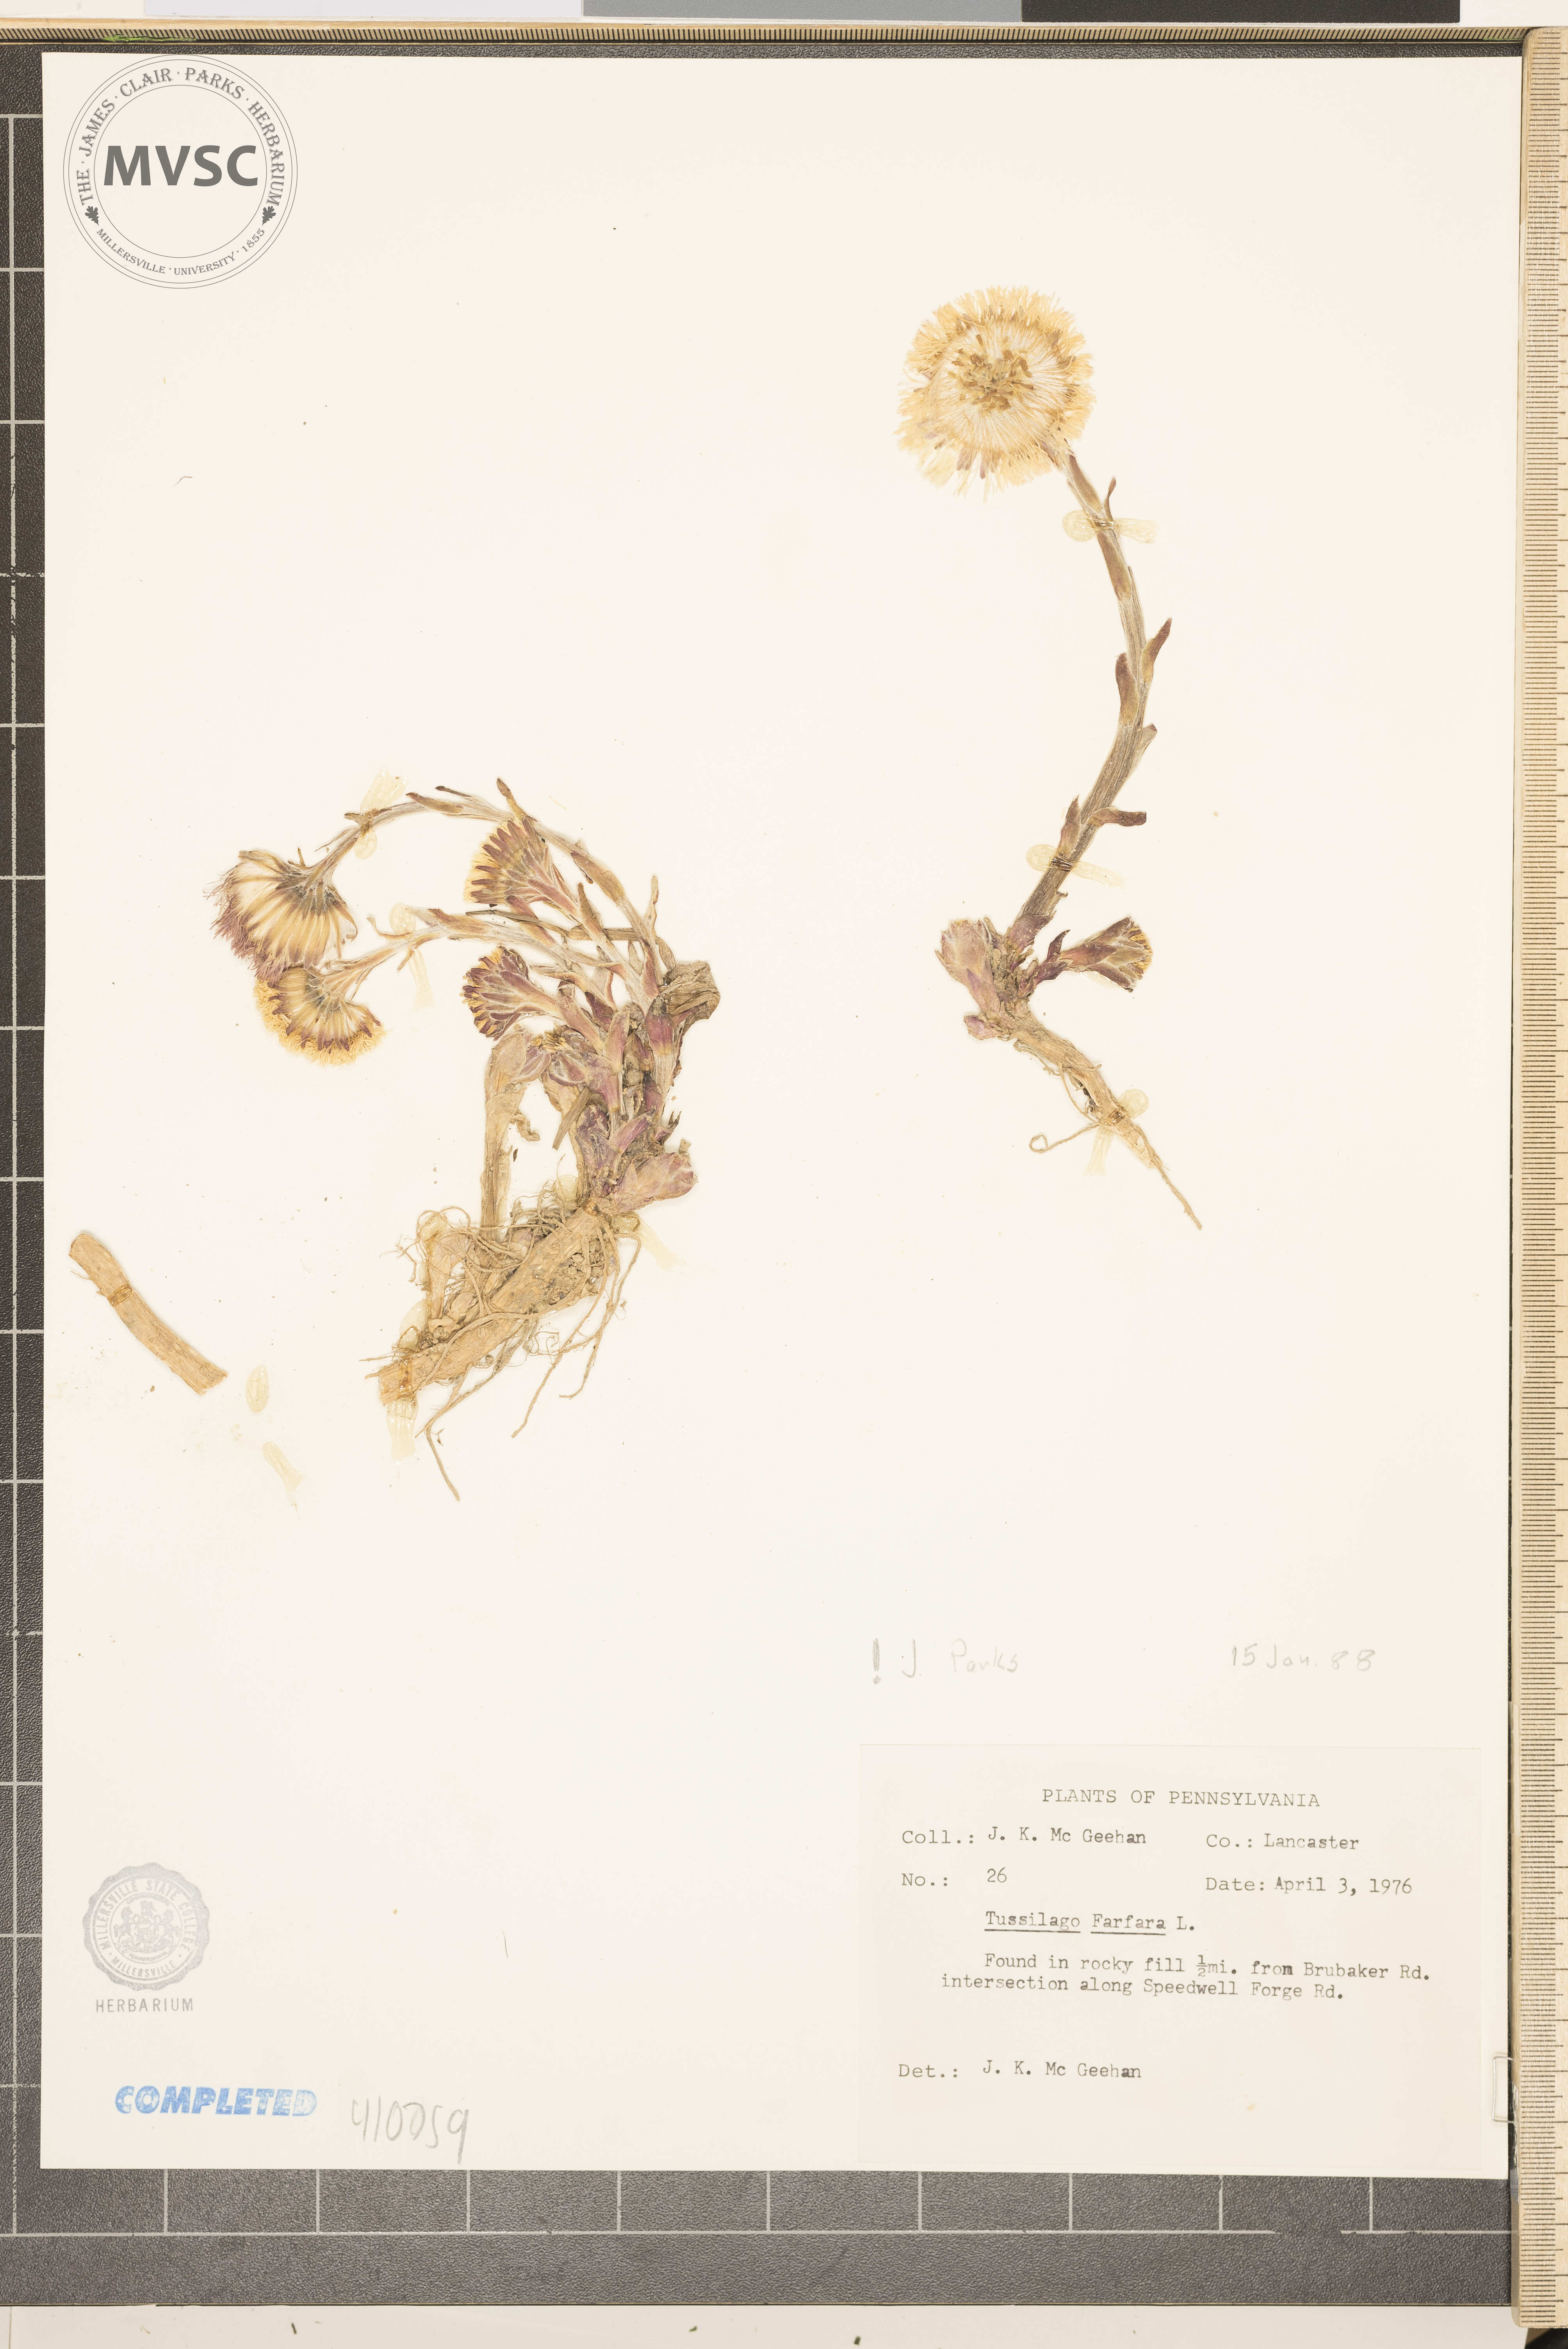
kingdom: Plantae
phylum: Tracheophyta
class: Magnoliopsida
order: Asterales
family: Asteraceae
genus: Tussilago
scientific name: Tussilago farfara
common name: Coltsfoot
